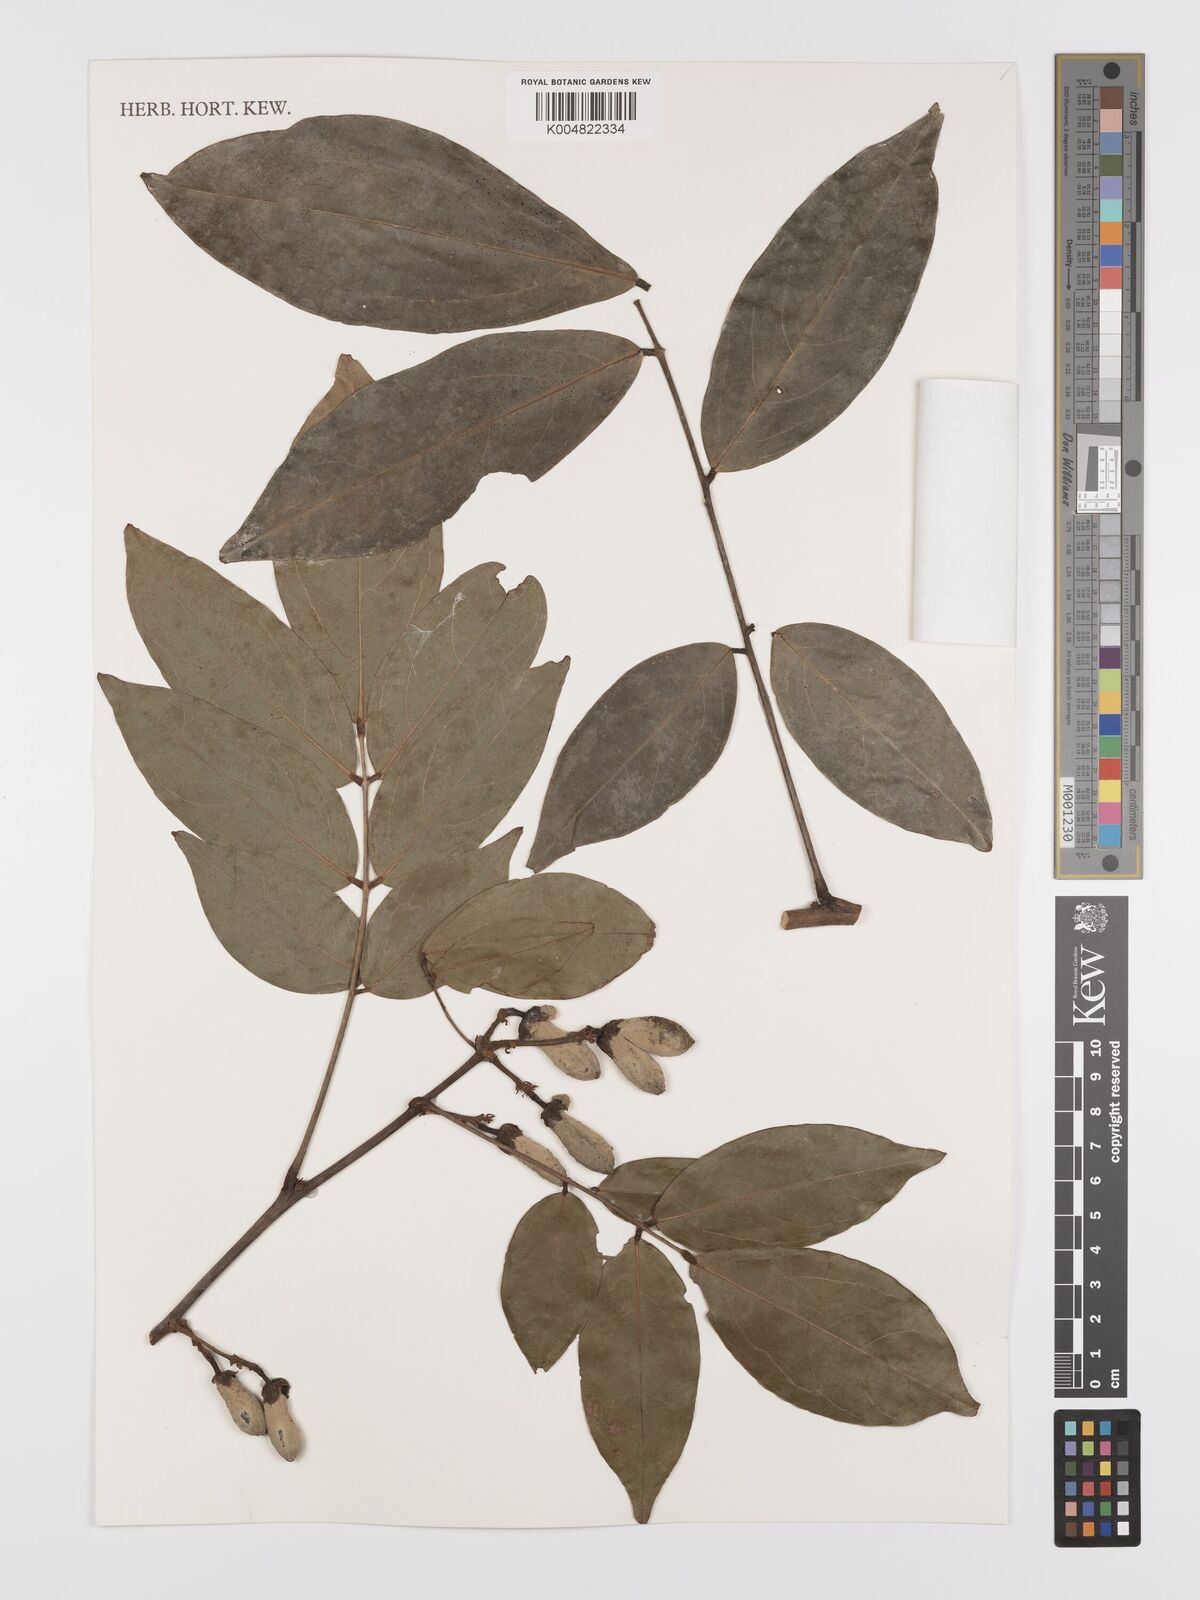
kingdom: Plantae
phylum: Tracheophyta
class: Magnoliopsida
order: Oxalidales
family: Connaraceae
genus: Rourea
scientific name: Rourea solanderi
